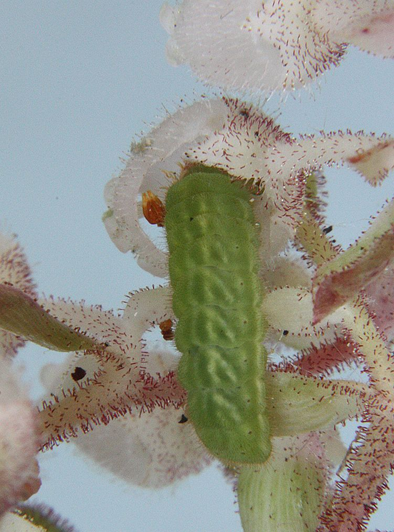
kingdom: Animalia
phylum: Arthropoda
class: Insecta
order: Lepidoptera
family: Lycaenidae
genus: Incisalia
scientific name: Incisalia irioides
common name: Brown Elfin
